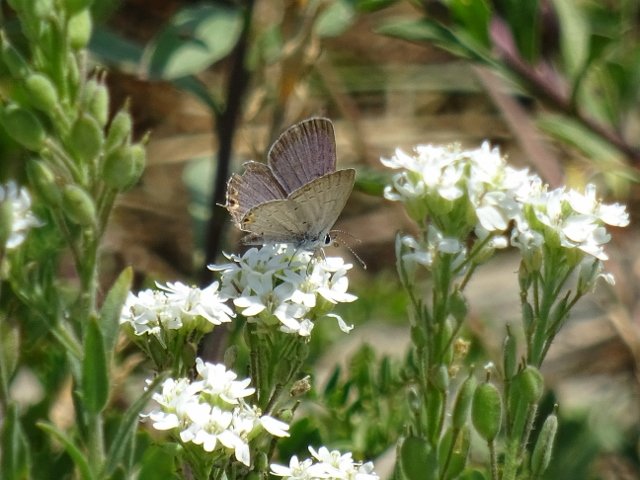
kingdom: Animalia
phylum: Arthropoda
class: Insecta
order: Lepidoptera
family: Lycaenidae
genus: Elkalyce
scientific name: Elkalyce comyntas
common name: Eastern Tailed-Blue
